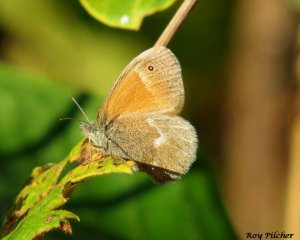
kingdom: Animalia
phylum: Arthropoda
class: Insecta
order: Lepidoptera
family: Nymphalidae
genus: Coenonympha
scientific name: Coenonympha tullia
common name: Large Heath
